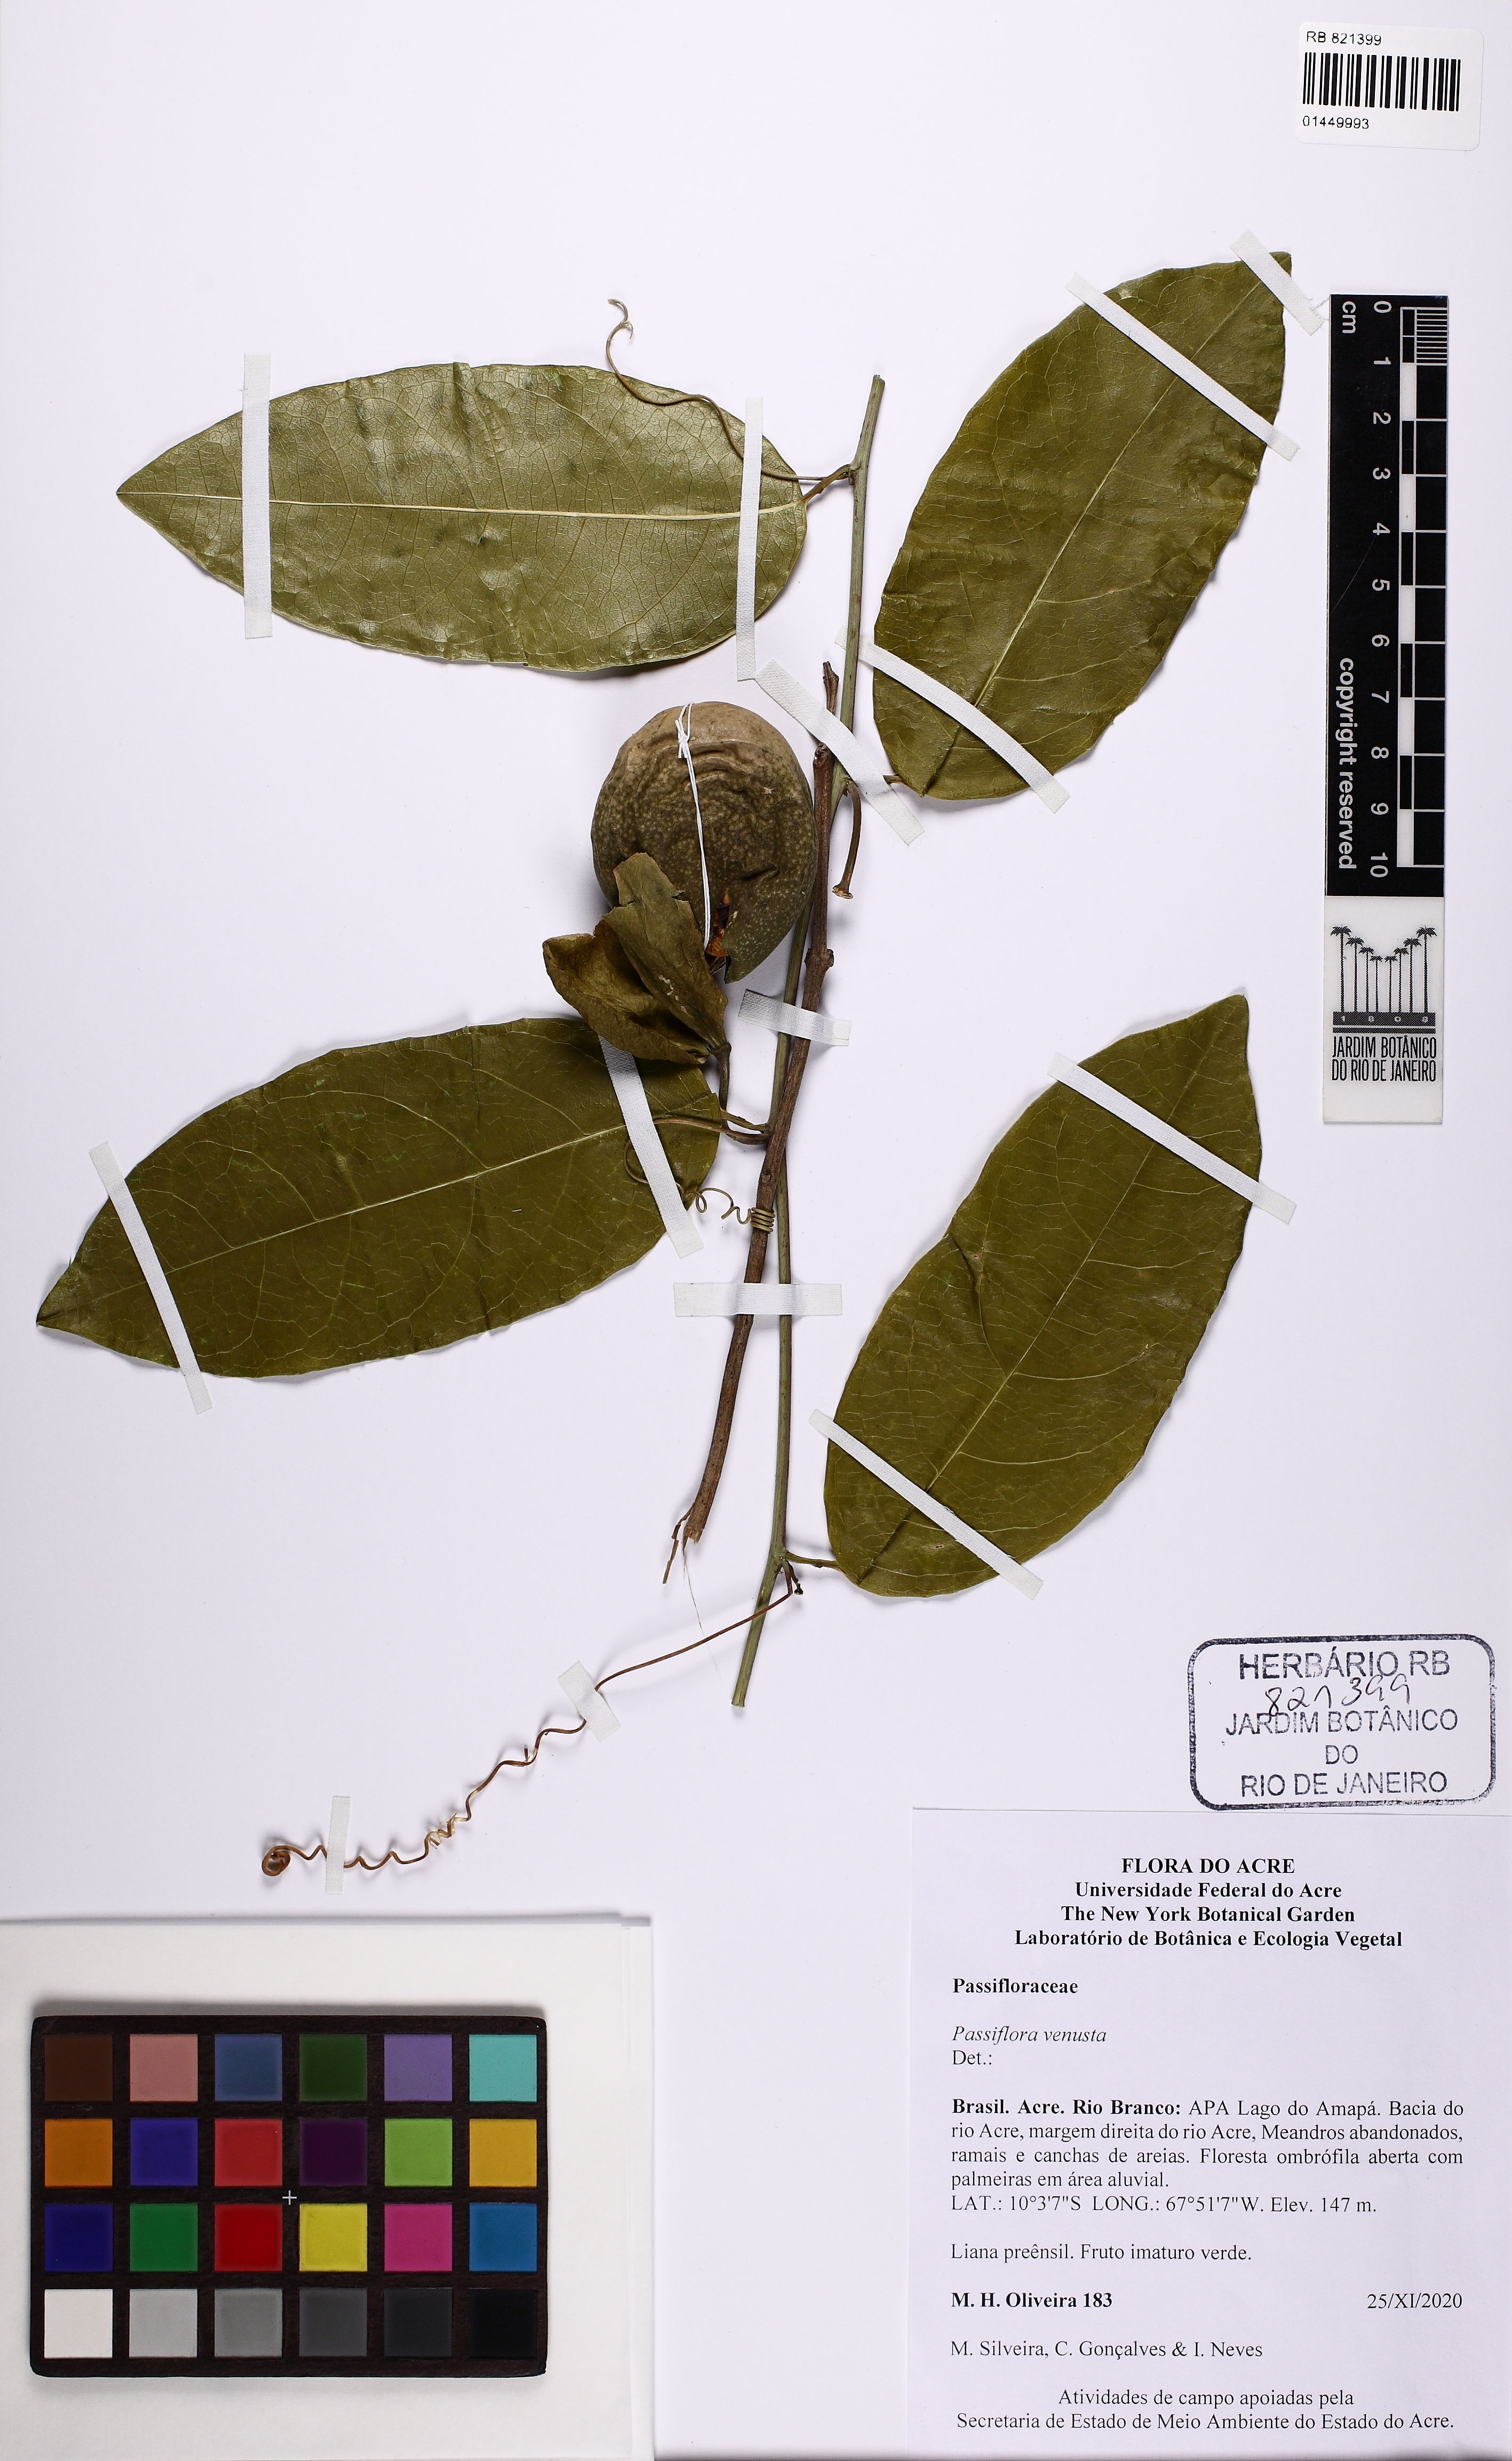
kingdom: Plantae
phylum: Tracheophyta
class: Magnoliopsida
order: Malpighiales
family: Passifloraceae
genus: Passiflora
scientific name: Passiflora venusta
